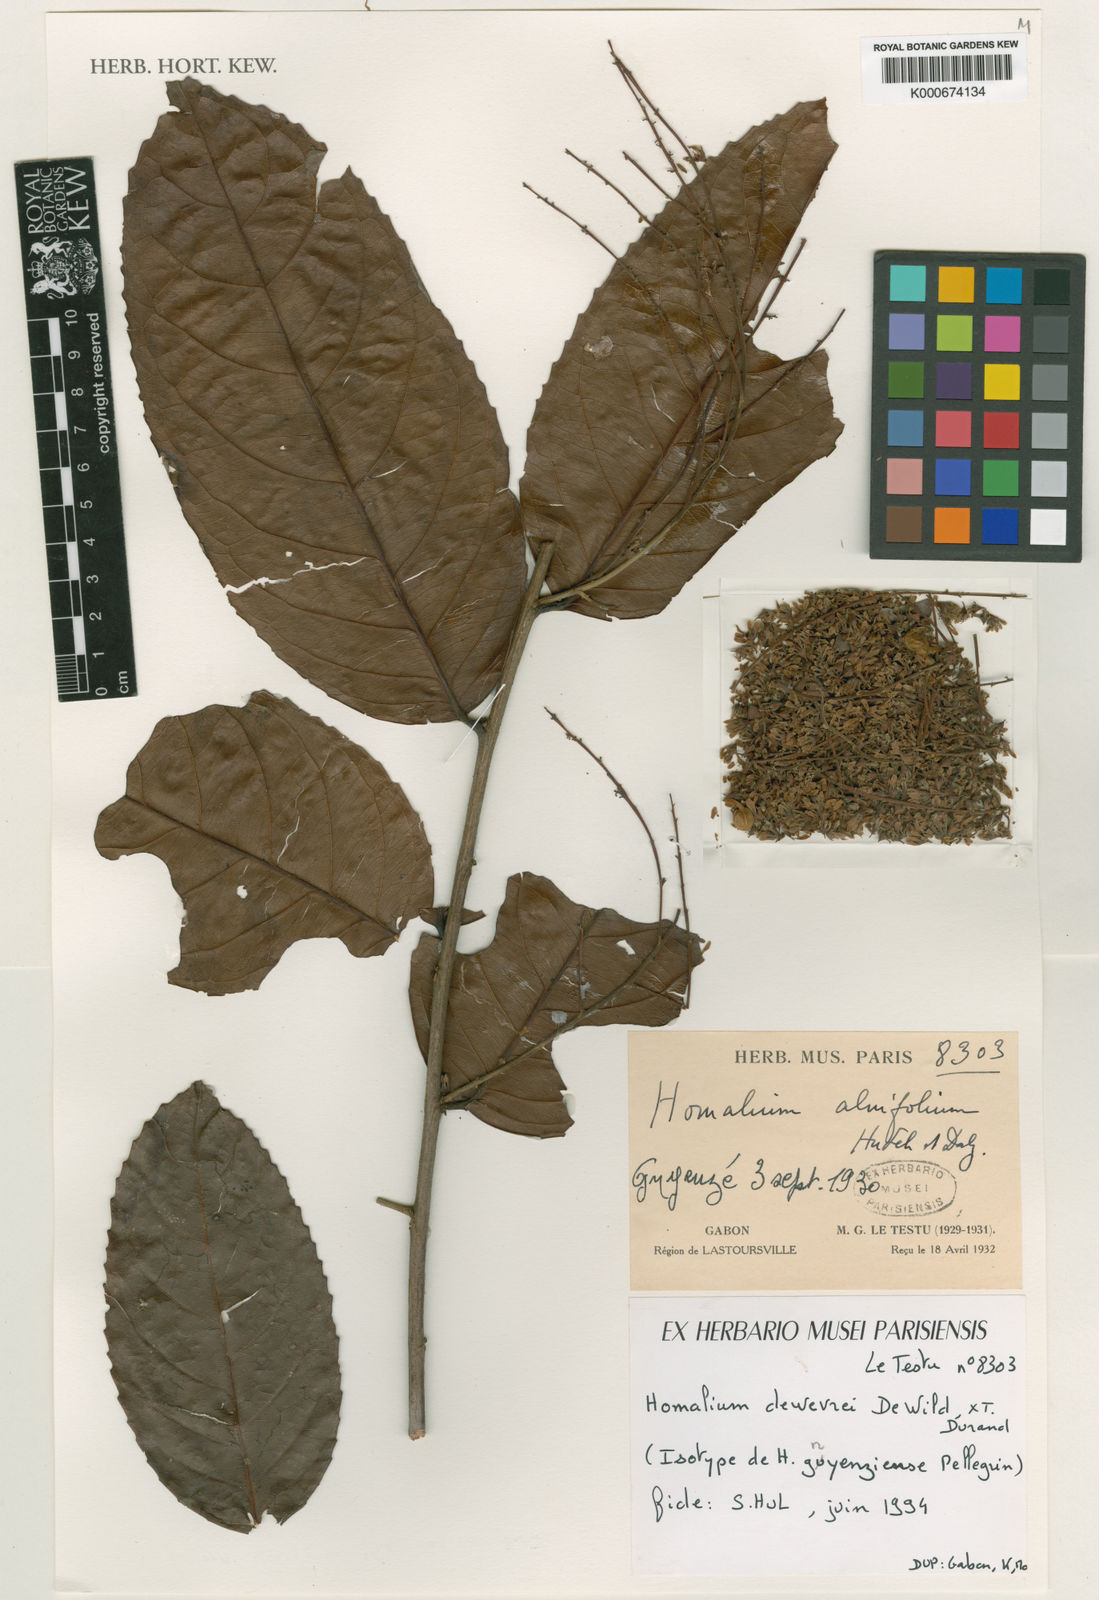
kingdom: Plantae
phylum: Tracheophyta
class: Magnoliopsida
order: Malpighiales
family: Salicaceae
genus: Homalium
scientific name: Homalium dewevrei
